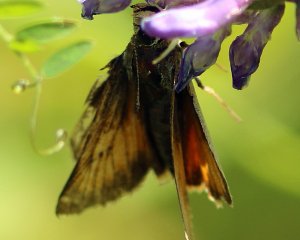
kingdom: Animalia
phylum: Arthropoda
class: Insecta
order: Lepidoptera
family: Hesperiidae
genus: Atrytone
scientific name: Atrytone delaware
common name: Delaware Skipper
